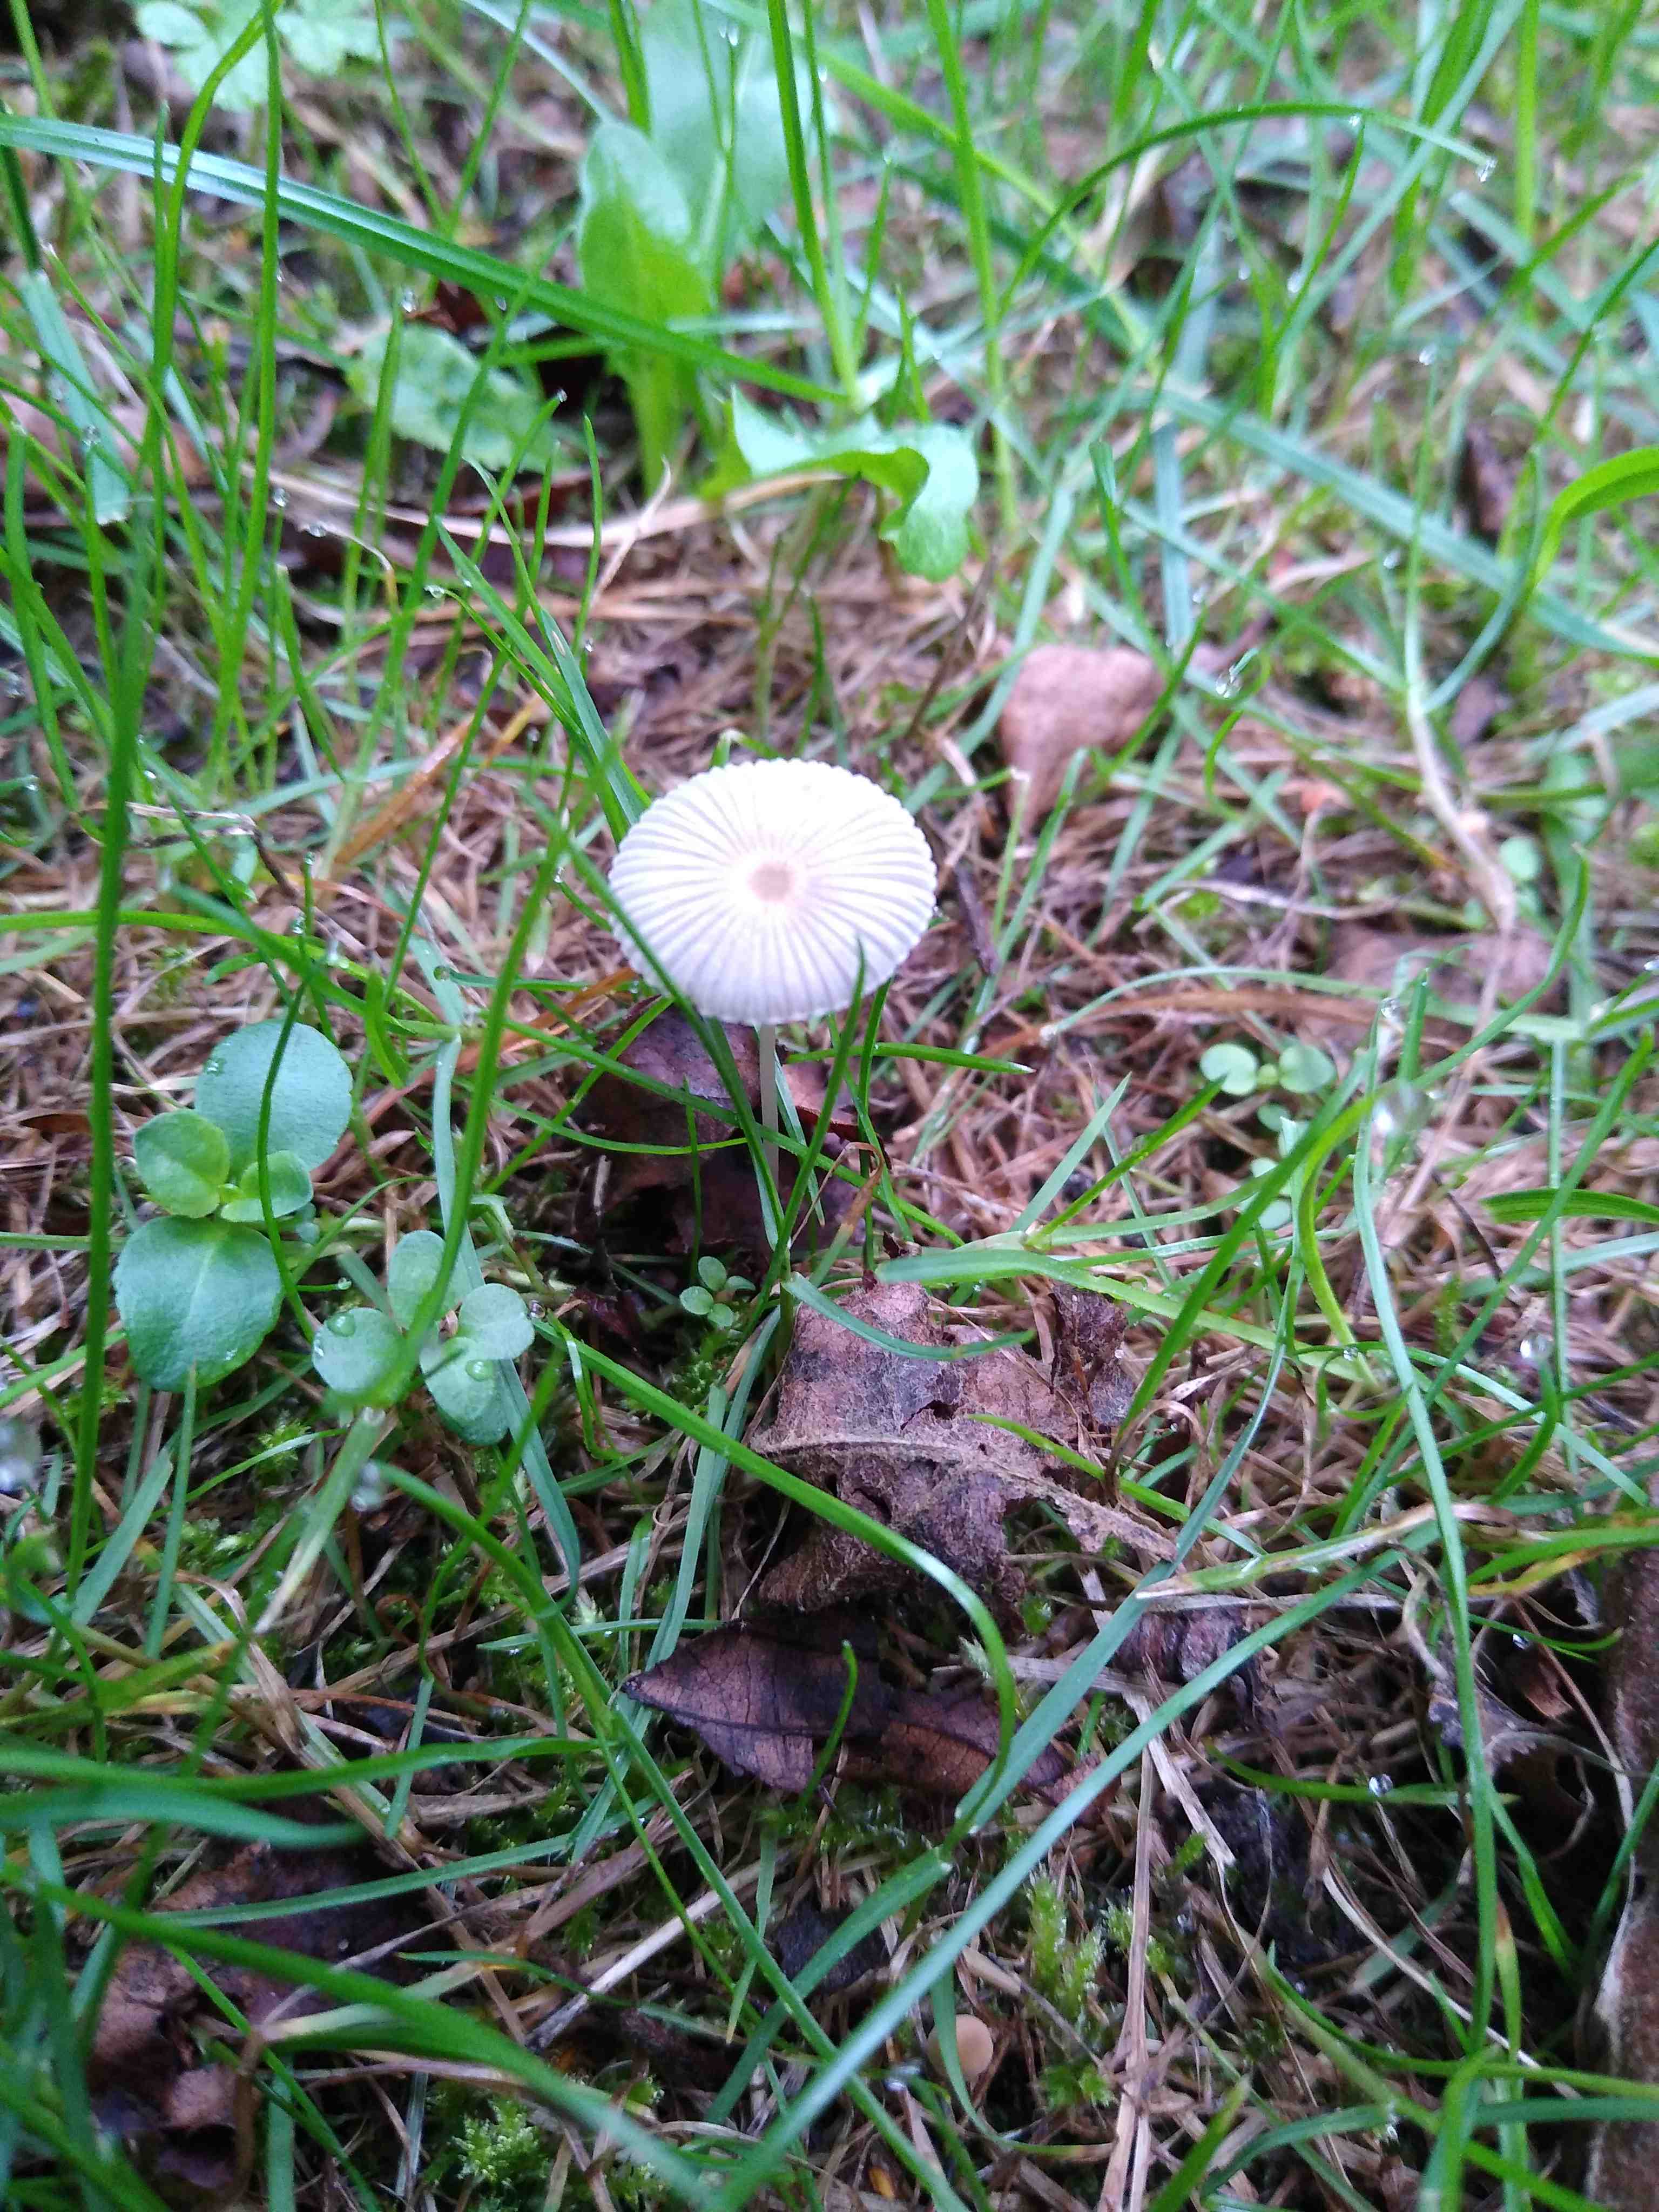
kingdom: Fungi
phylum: Basidiomycota
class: Agaricomycetes
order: Agaricales
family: Psathyrellaceae
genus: Parasola
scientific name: Parasola
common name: hjulhat
